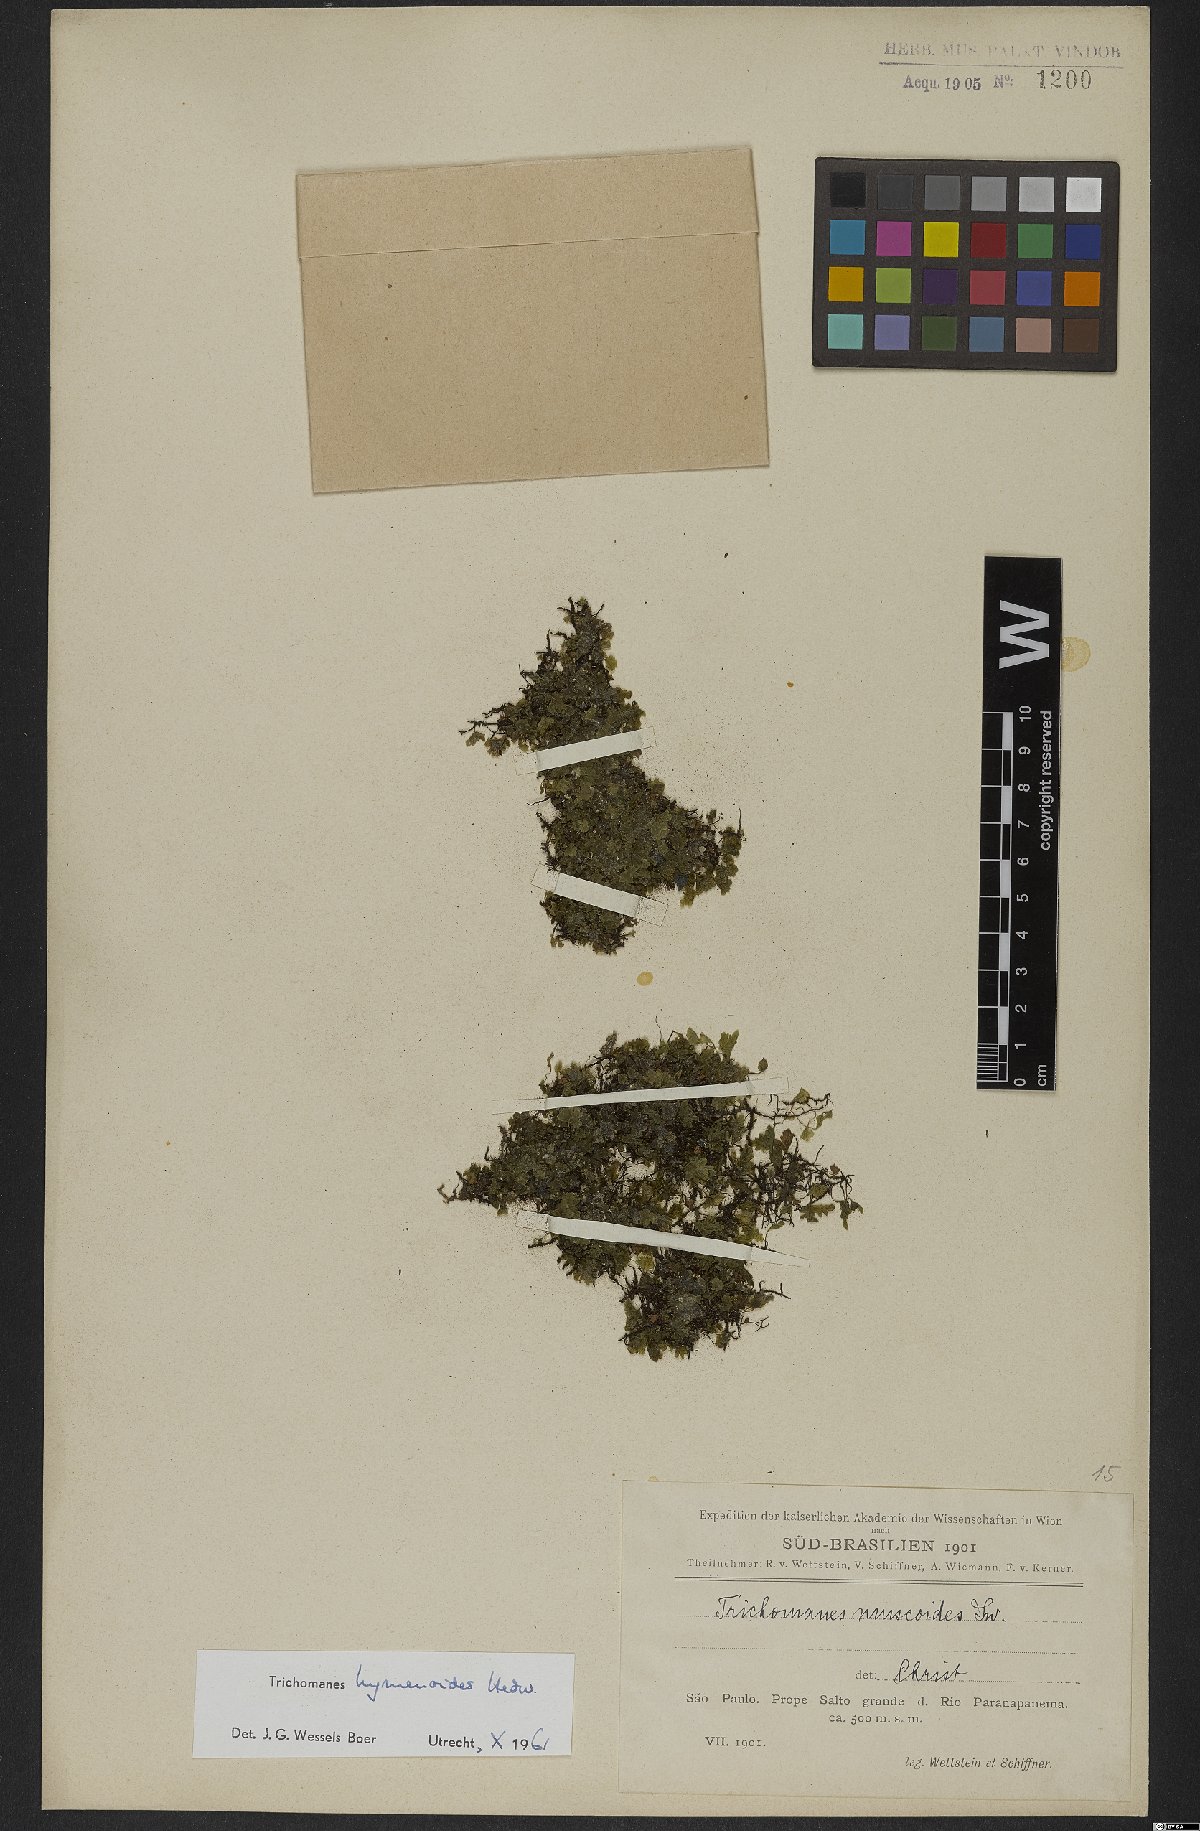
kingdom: Plantae
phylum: Tracheophyta
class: Polypodiopsida
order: Hymenophyllales
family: Hymenophyllaceae
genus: Didymoglossum
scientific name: Didymoglossum hymenoides
